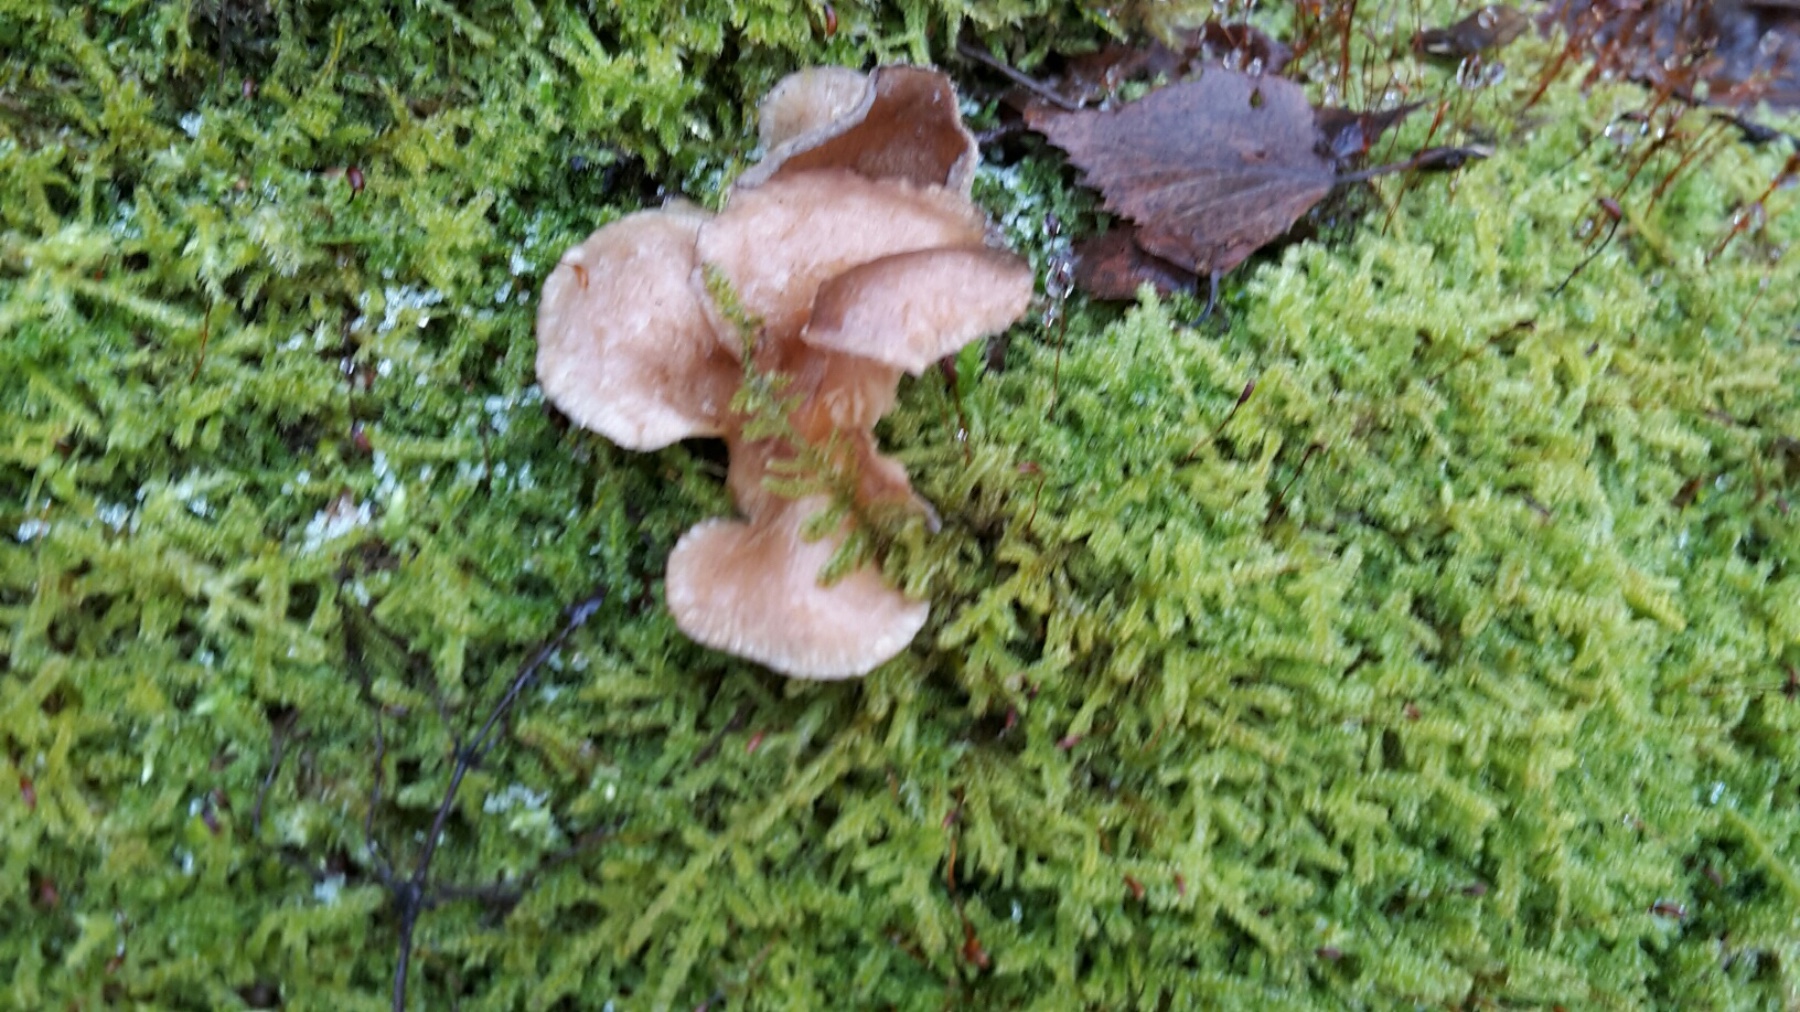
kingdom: Fungi
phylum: Basidiomycota
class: Agaricomycetes
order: Agaricales
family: Sarcomyxaceae
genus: Sarcomyxa
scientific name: Sarcomyxa serotina
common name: gummihat
